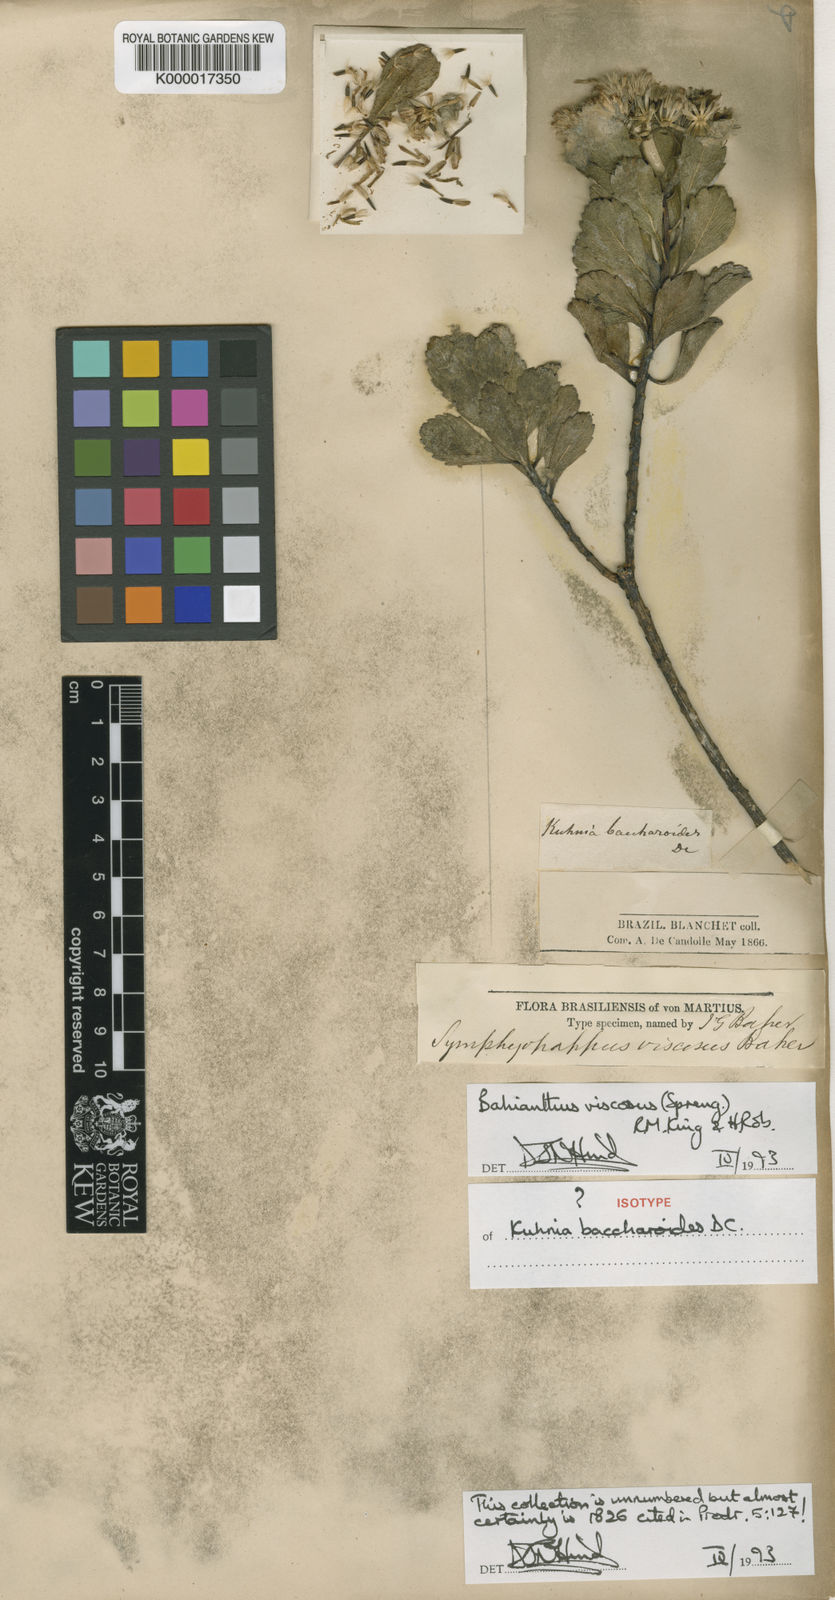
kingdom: Plantae
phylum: Tracheophyta
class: Magnoliopsida
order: Asterales
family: Asteraceae
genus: Bahianthus
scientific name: Bahianthus viscosus
